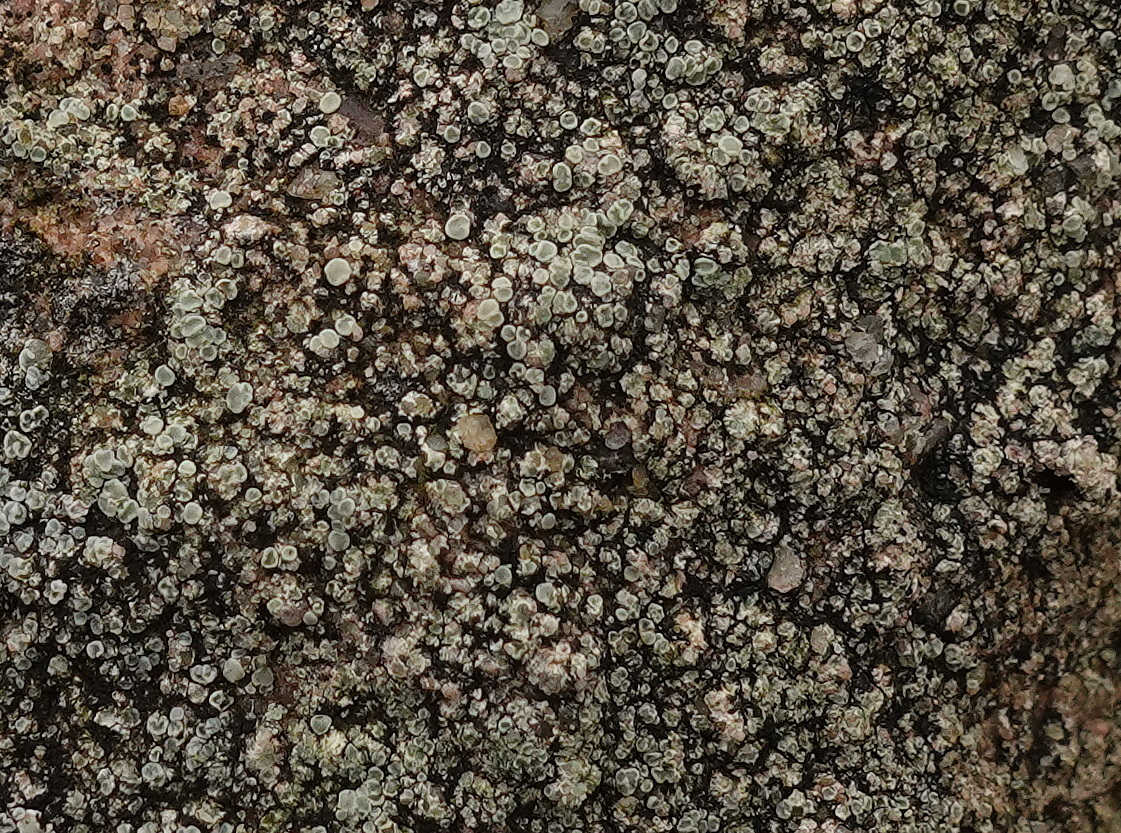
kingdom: Fungi
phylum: Ascomycota
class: Lecanoromycetes
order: Lecanorales
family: Lecanoraceae
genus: Lecanora
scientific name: Lecanora polytropa
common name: bleggrøn kantskivelav
